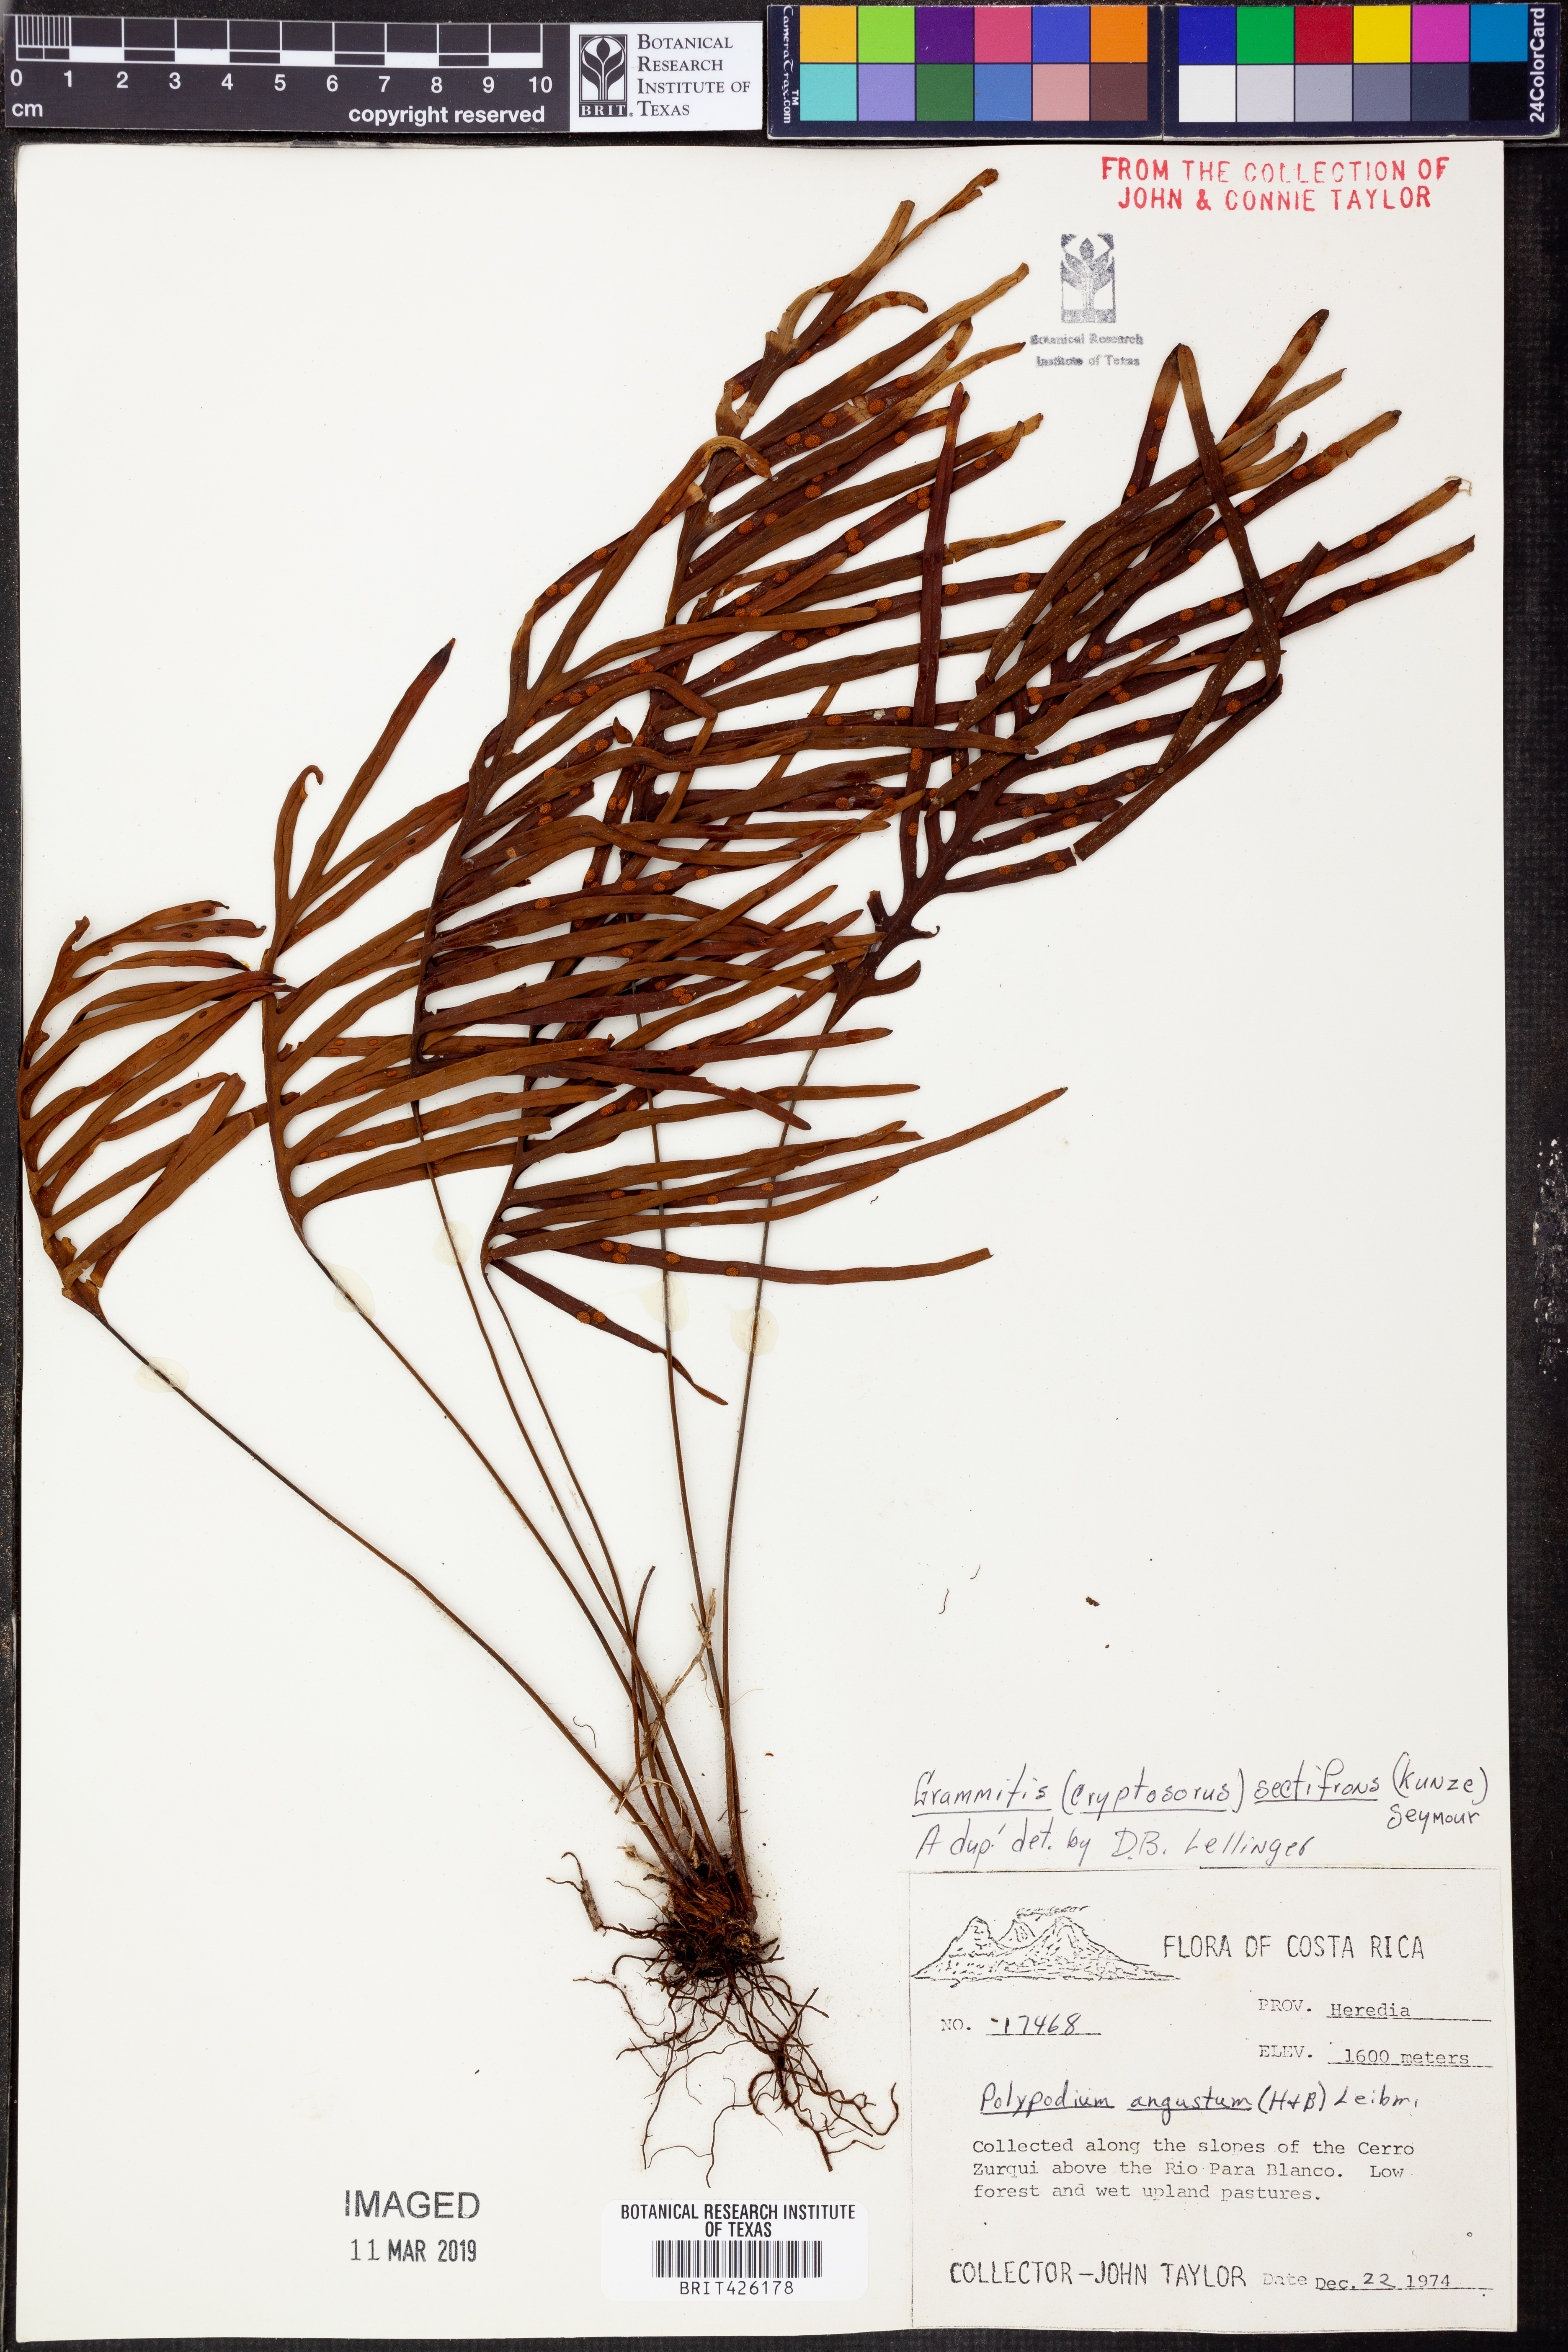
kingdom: Plantae
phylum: Tracheophyta
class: Polypodiopsida
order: Polypodiales
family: Polypodiaceae
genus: Enterosora
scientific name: Enterosora sectifrons
